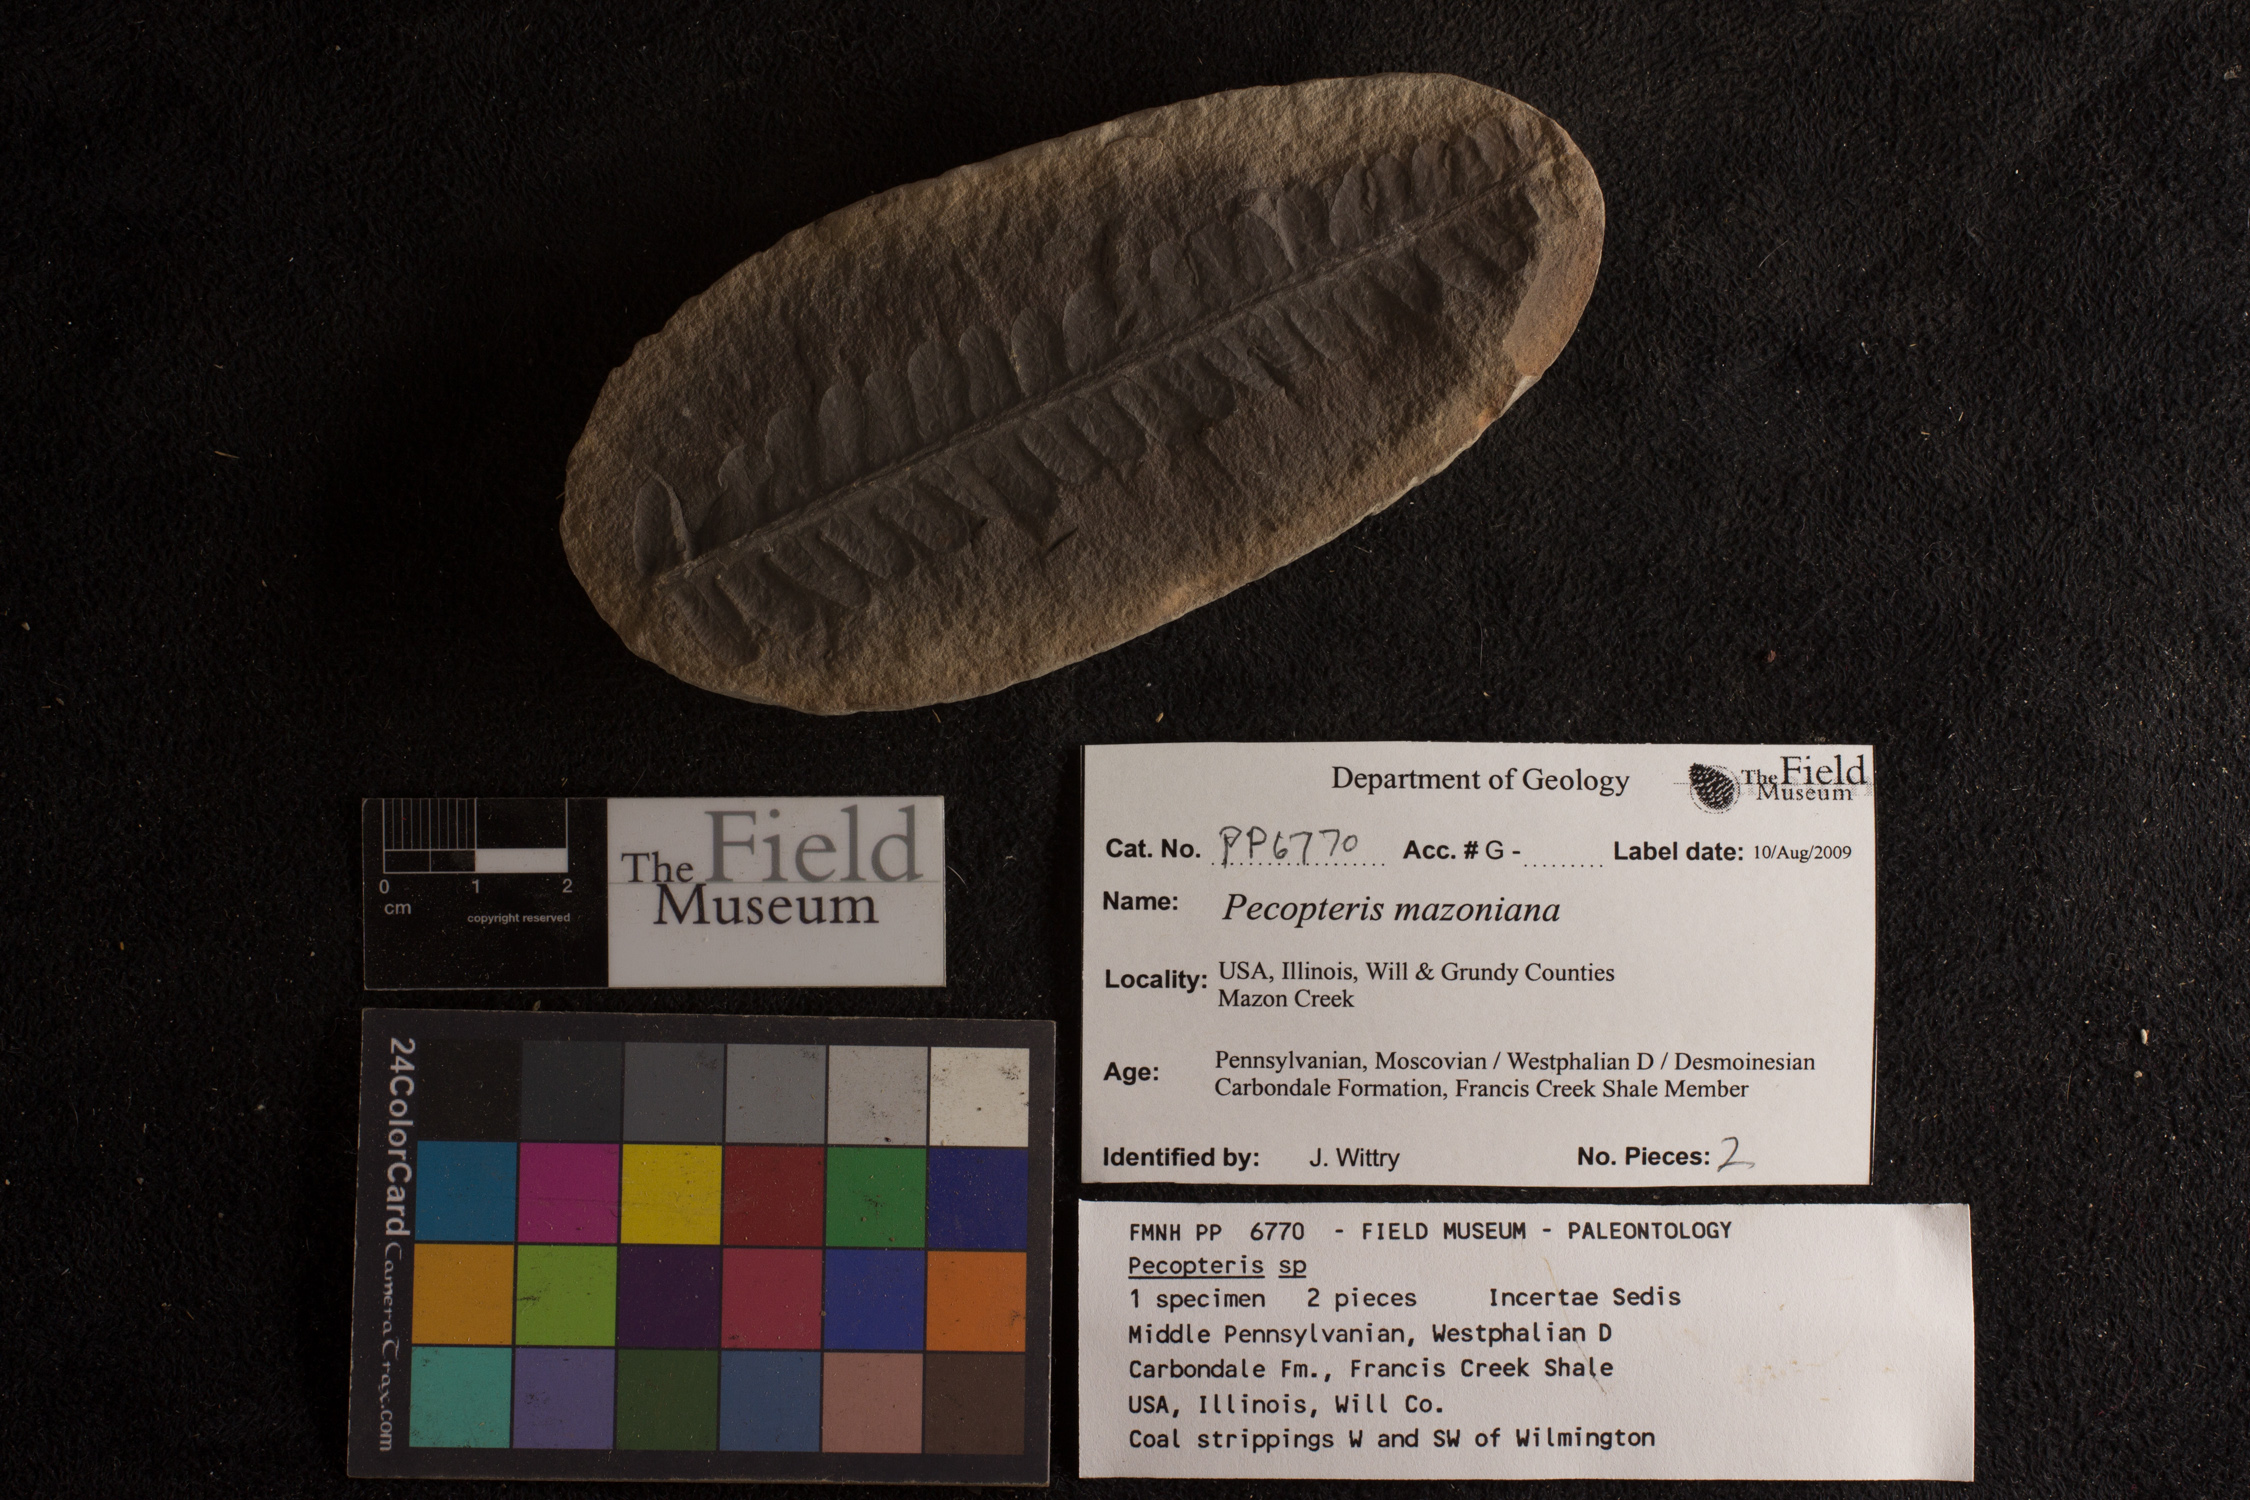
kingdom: Plantae
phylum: Tracheophyta
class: Polypodiopsida
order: Marattiales
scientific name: Marattiales
